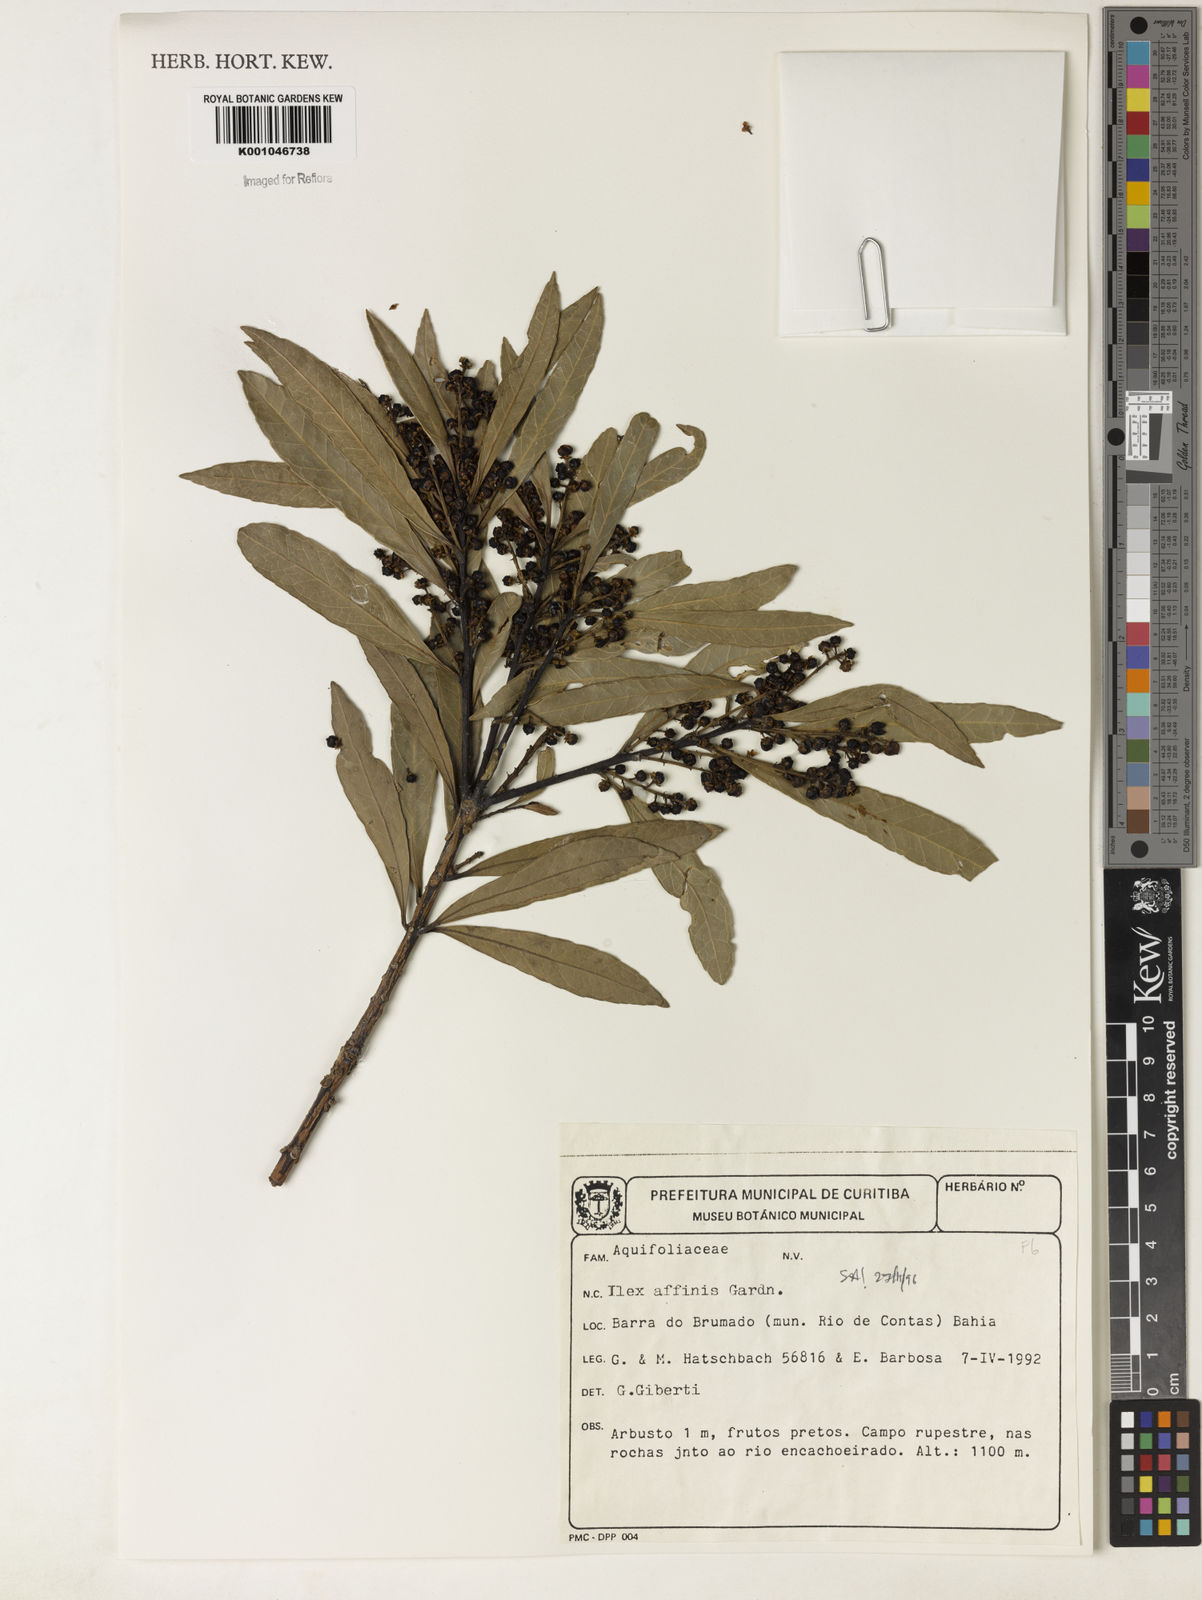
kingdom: Plantae
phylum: Tracheophyta
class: Magnoliopsida
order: Aquifoliales
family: Aquifoliaceae
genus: Ilex
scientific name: Ilex affinis
